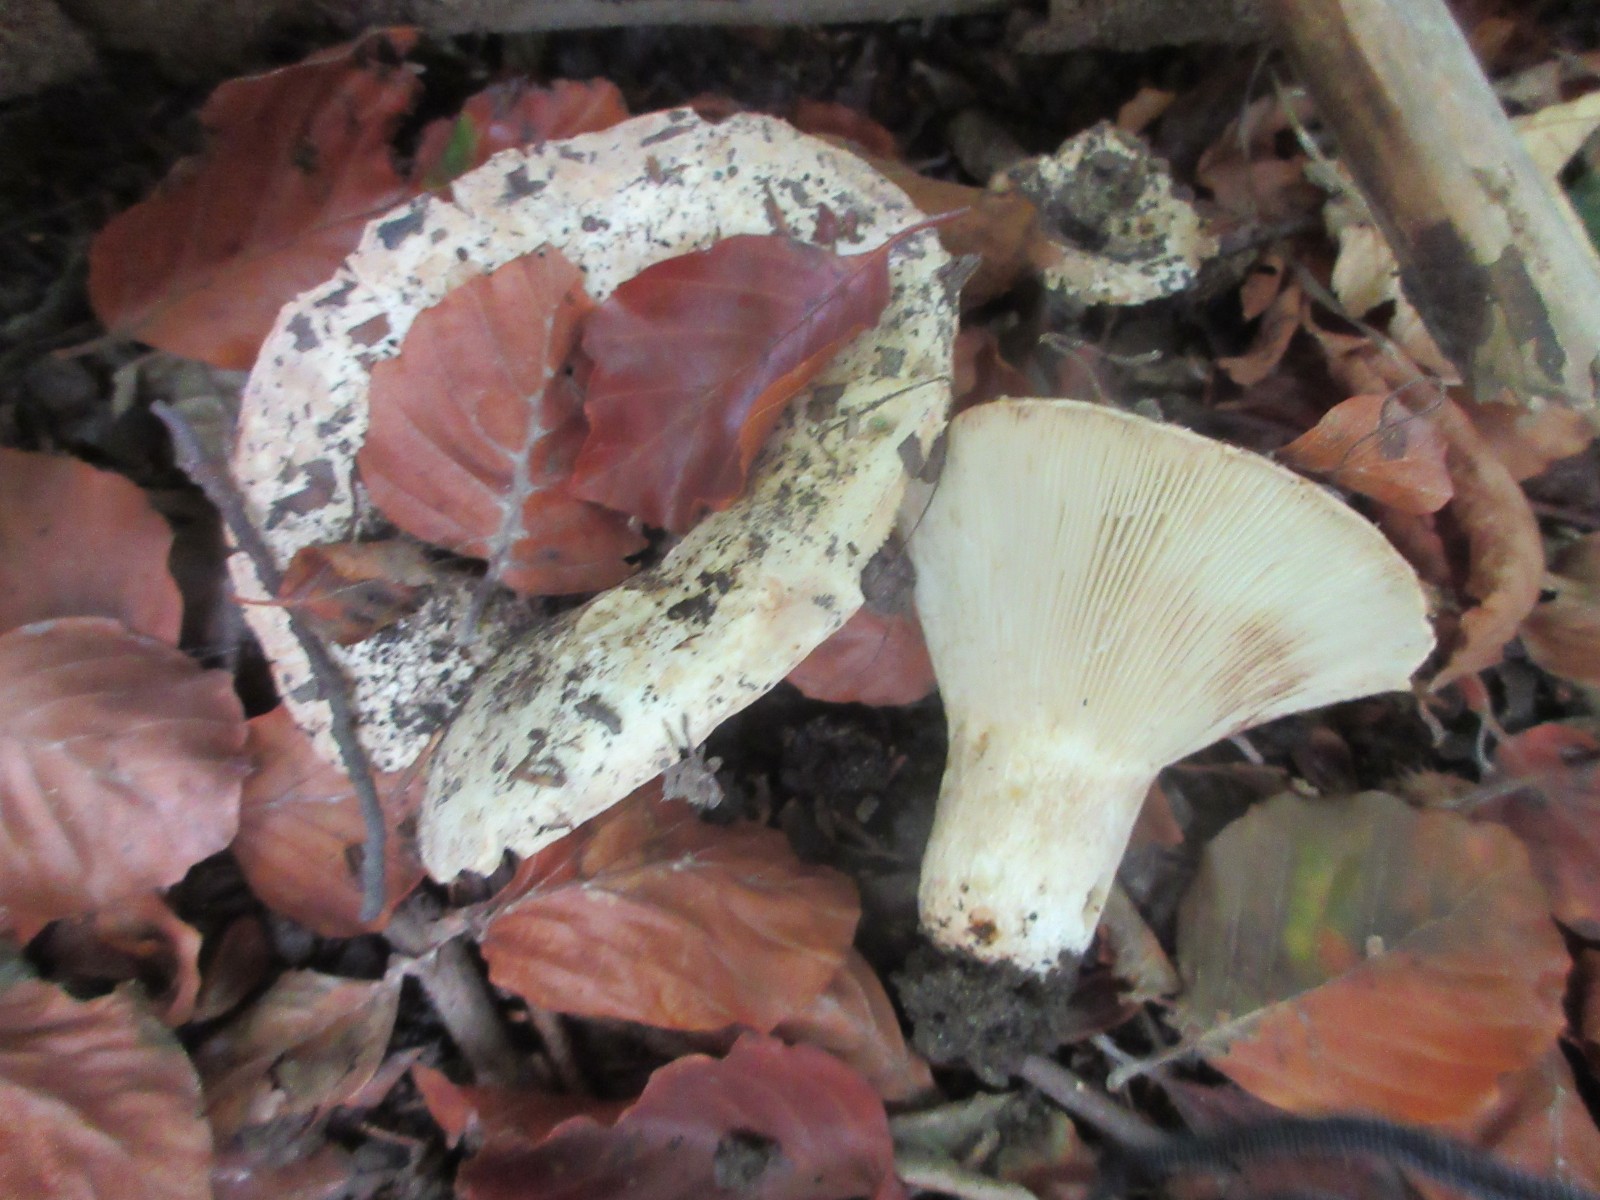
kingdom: Fungi
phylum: Basidiomycota
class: Agaricomycetes
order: Russulales
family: Russulaceae
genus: Russula
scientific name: Russula delica
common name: almindelig tragt-skørhat
